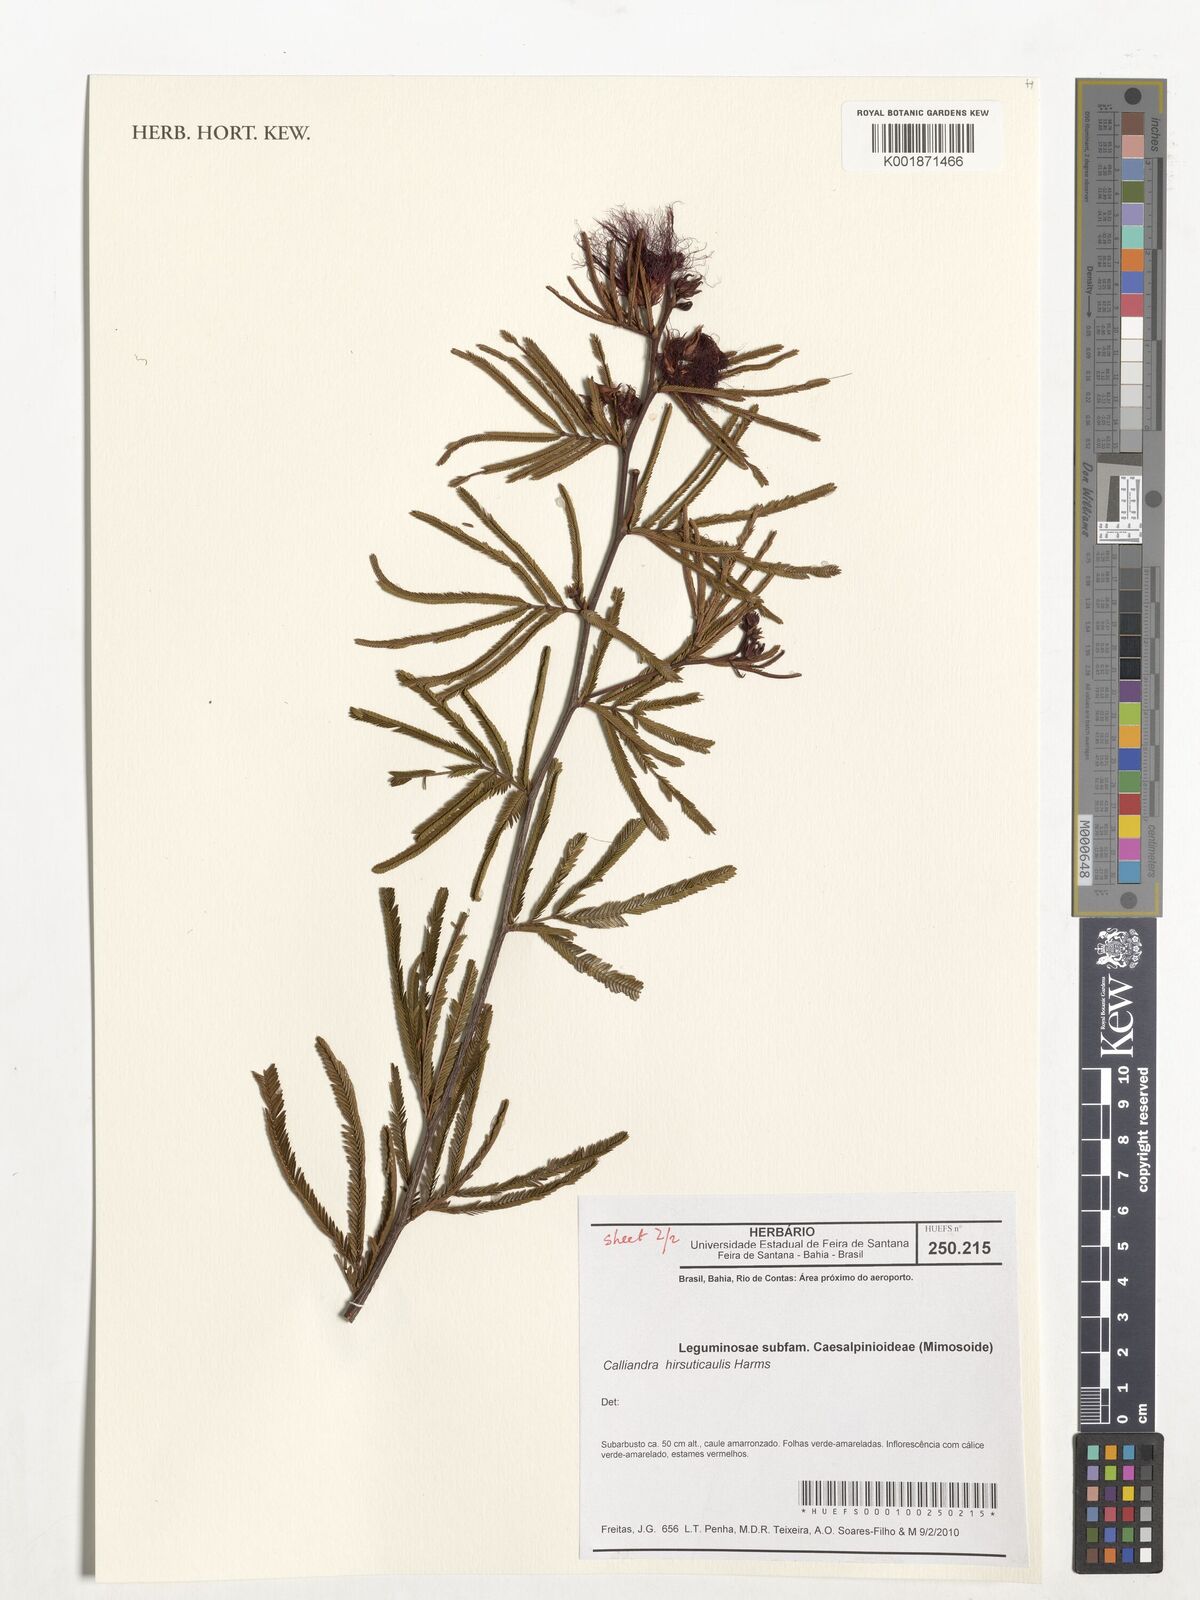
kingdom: Plantae
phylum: Tracheophyta
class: Magnoliopsida
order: Fabales
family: Fabaceae
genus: Calliandra
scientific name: Calliandra hirsuticaulis
